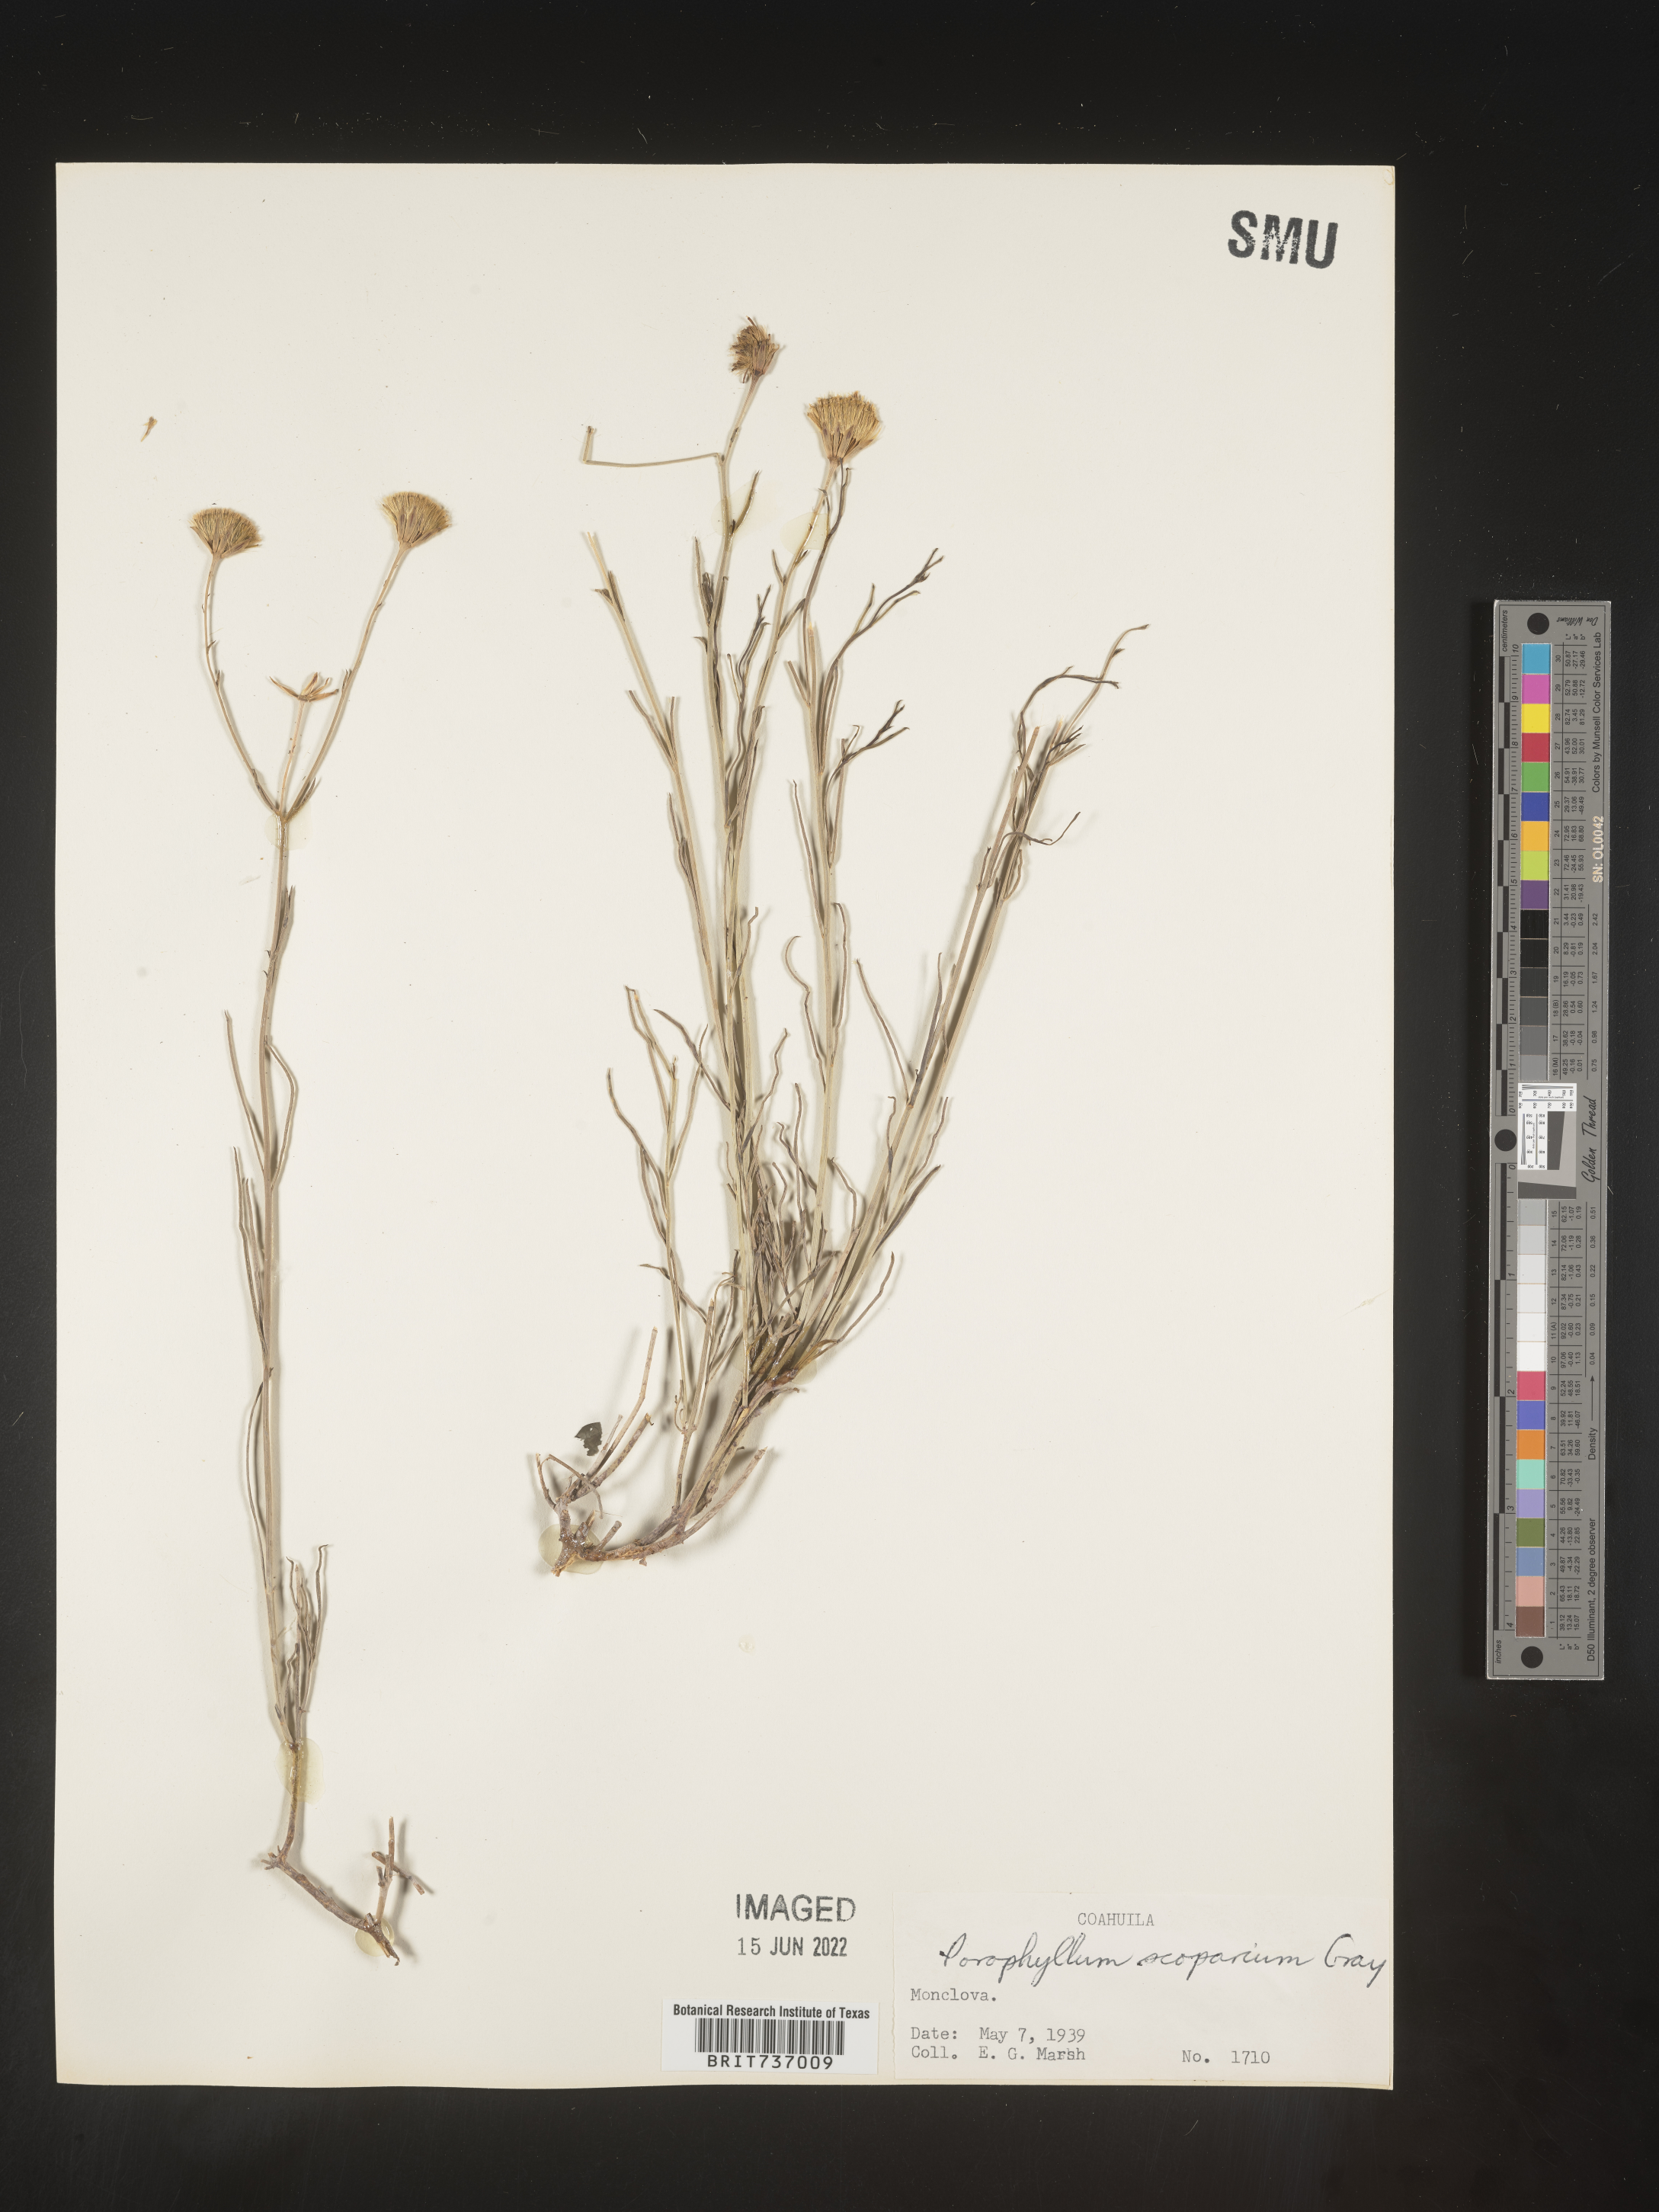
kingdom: Plantae
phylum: Tracheophyta
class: Magnoliopsida
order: Asterales
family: Asteraceae
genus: Porophyllum
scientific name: Porophyllum
